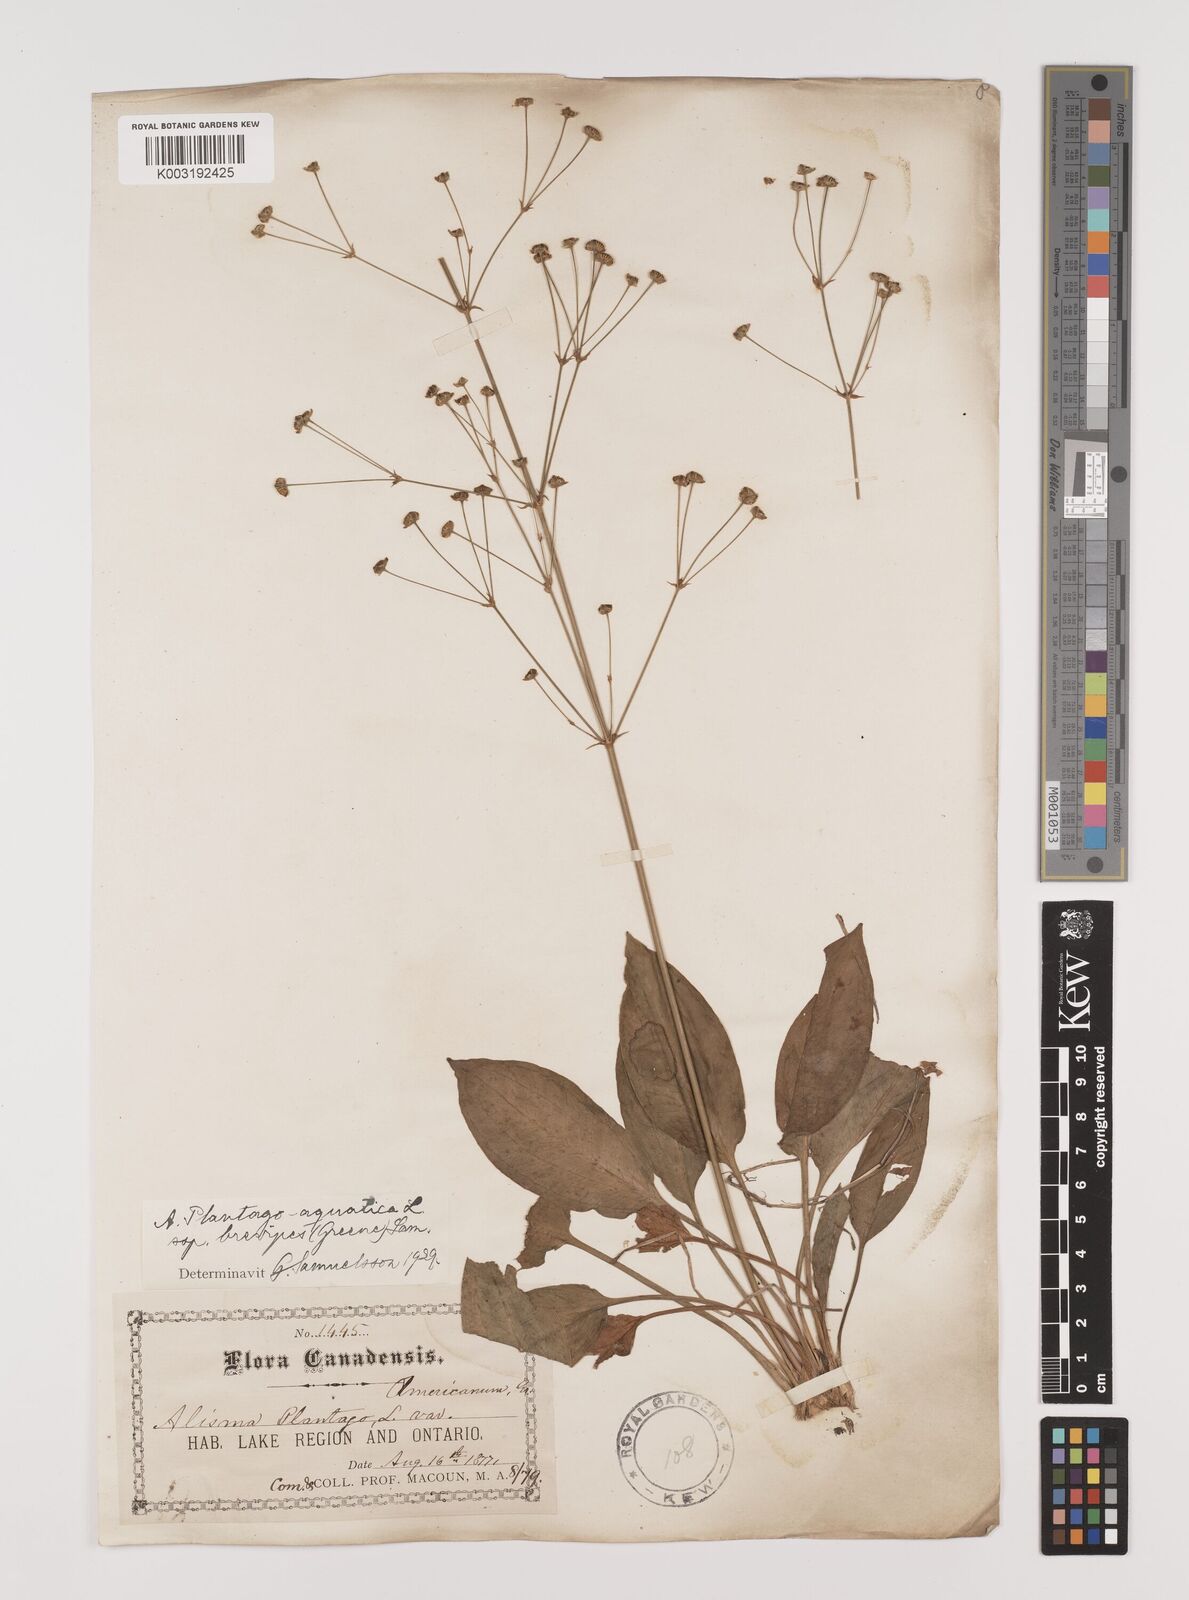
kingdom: Plantae
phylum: Tracheophyta
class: Liliopsida
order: Alismatales
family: Alismataceae
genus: Alisma
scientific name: Alisma triviale
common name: Northern water-plantain
